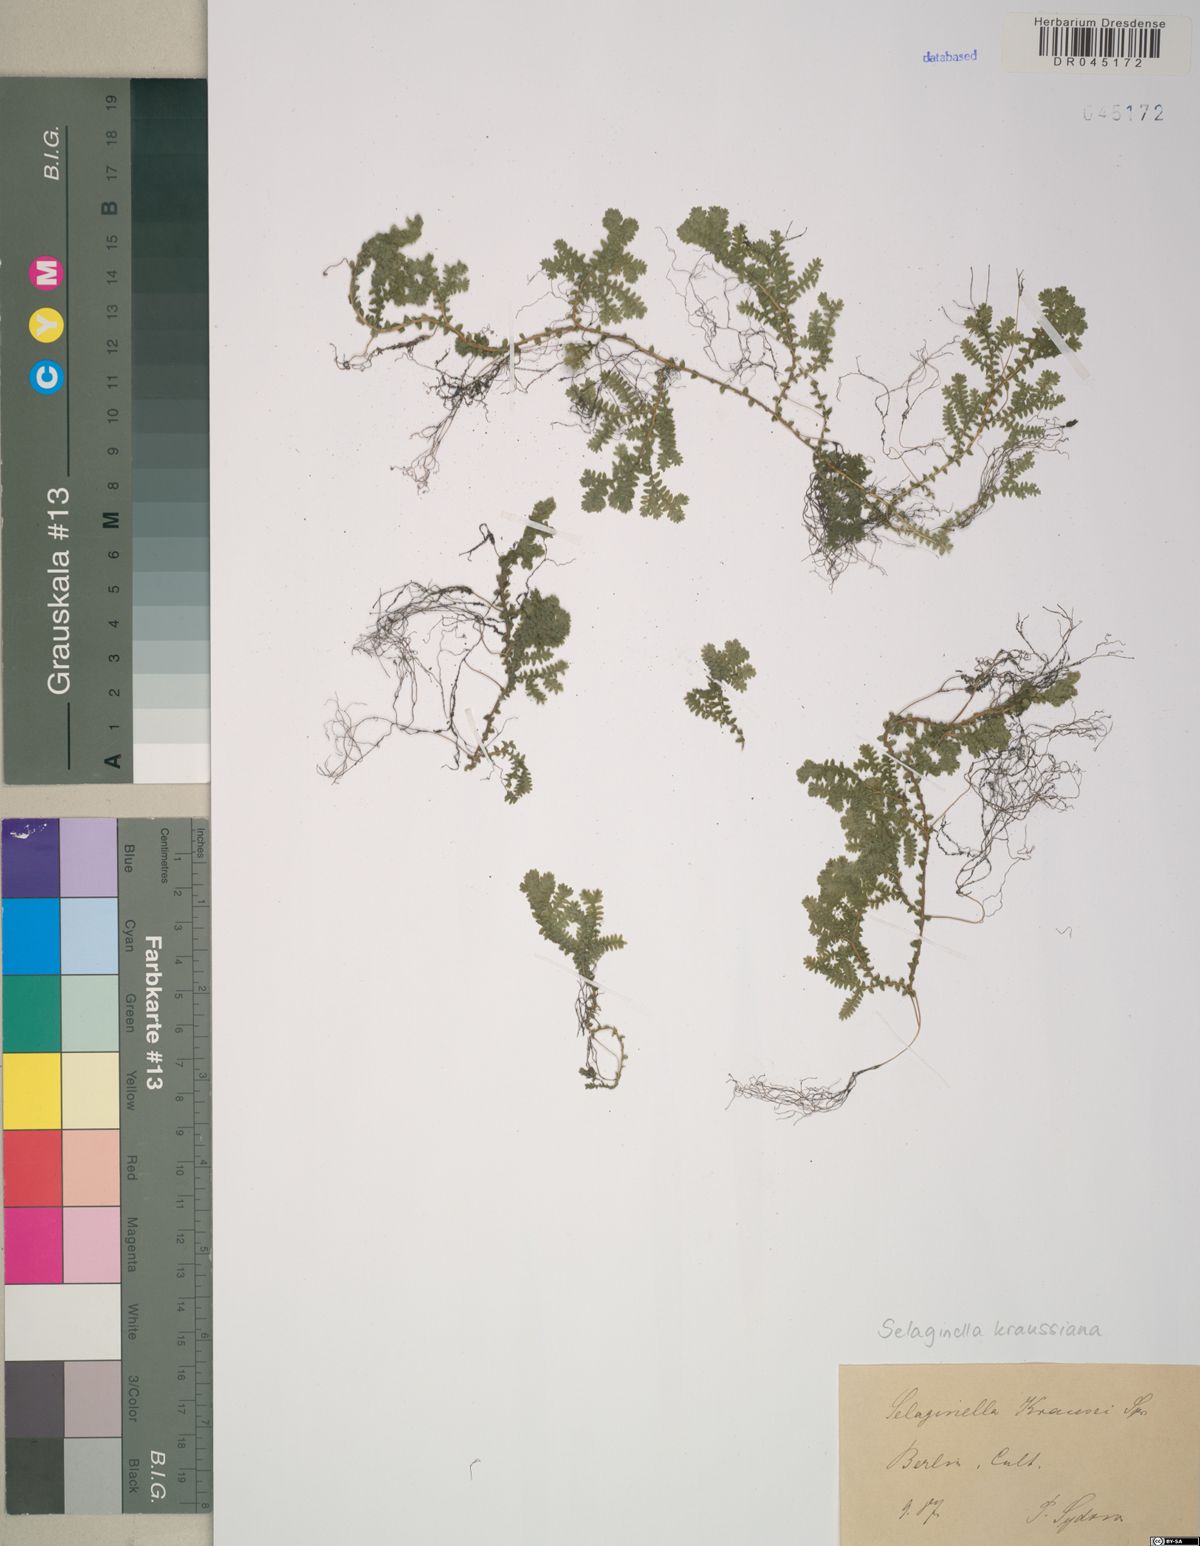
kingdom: Plantae
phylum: Tracheophyta
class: Lycopodiopsida
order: Selaginellales
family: Selaginellaceae
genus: Selaginella
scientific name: Selaginella kraussiana
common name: Krauss' spikemoss
